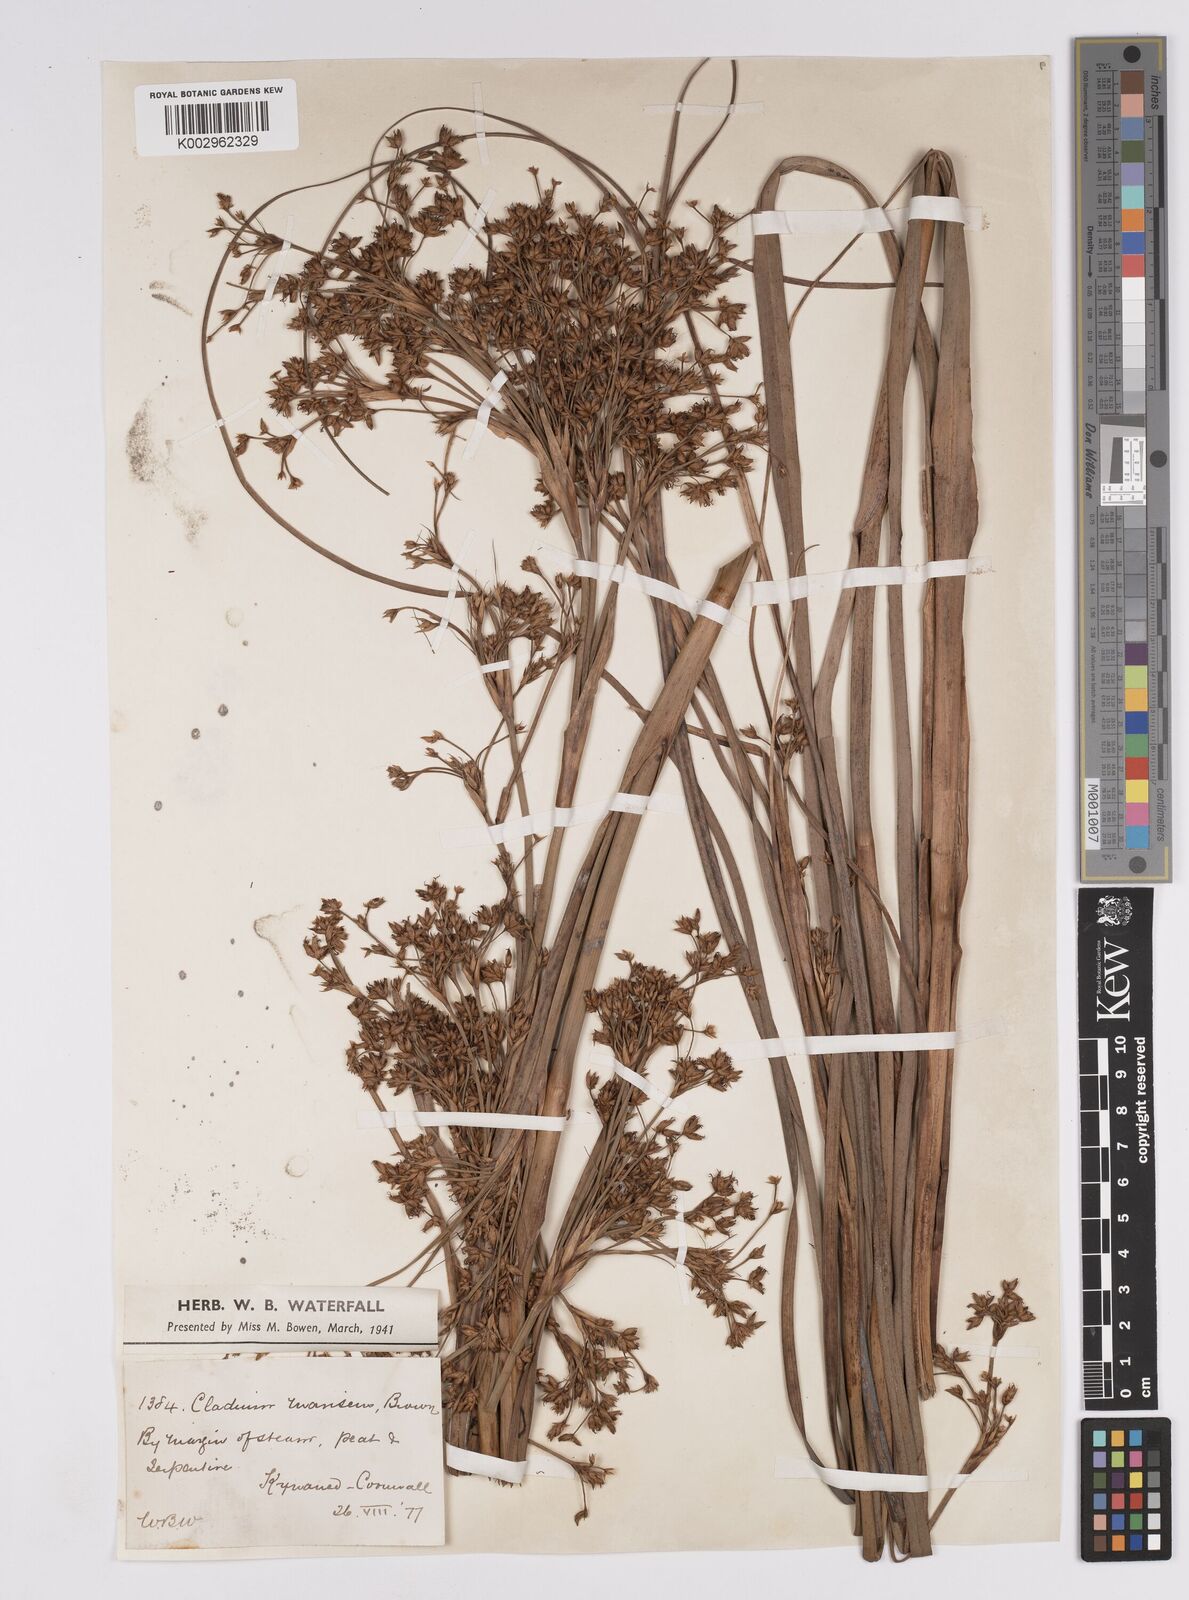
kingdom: Plantae
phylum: Tracheophyta
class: Liliopsida
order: Poales
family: Cyperaceae
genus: Cladium
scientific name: Cladium mariscus
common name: Great fen-sedge
